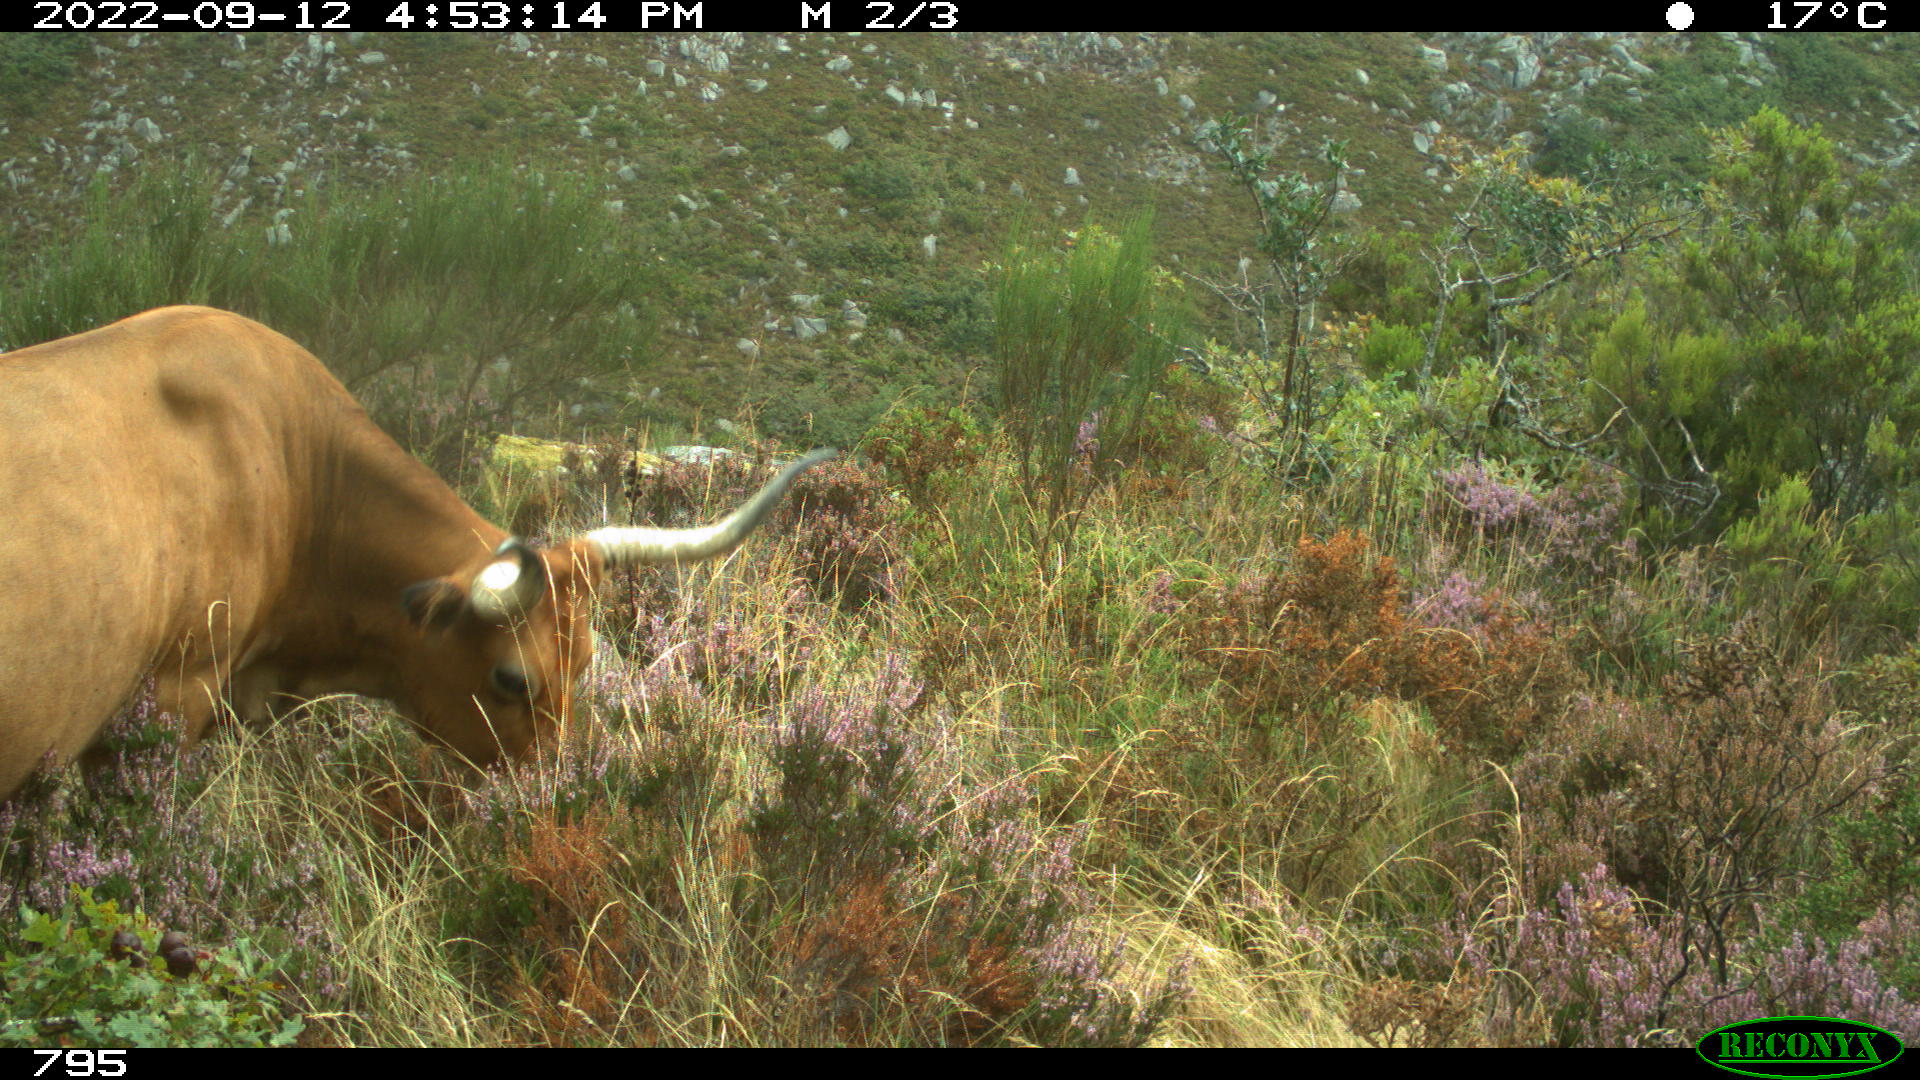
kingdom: Animalia
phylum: Chordata
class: Mammalia
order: Artiodactyla
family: Bovidae
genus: Bos
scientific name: Bos taurus
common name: Domesticated cattle
